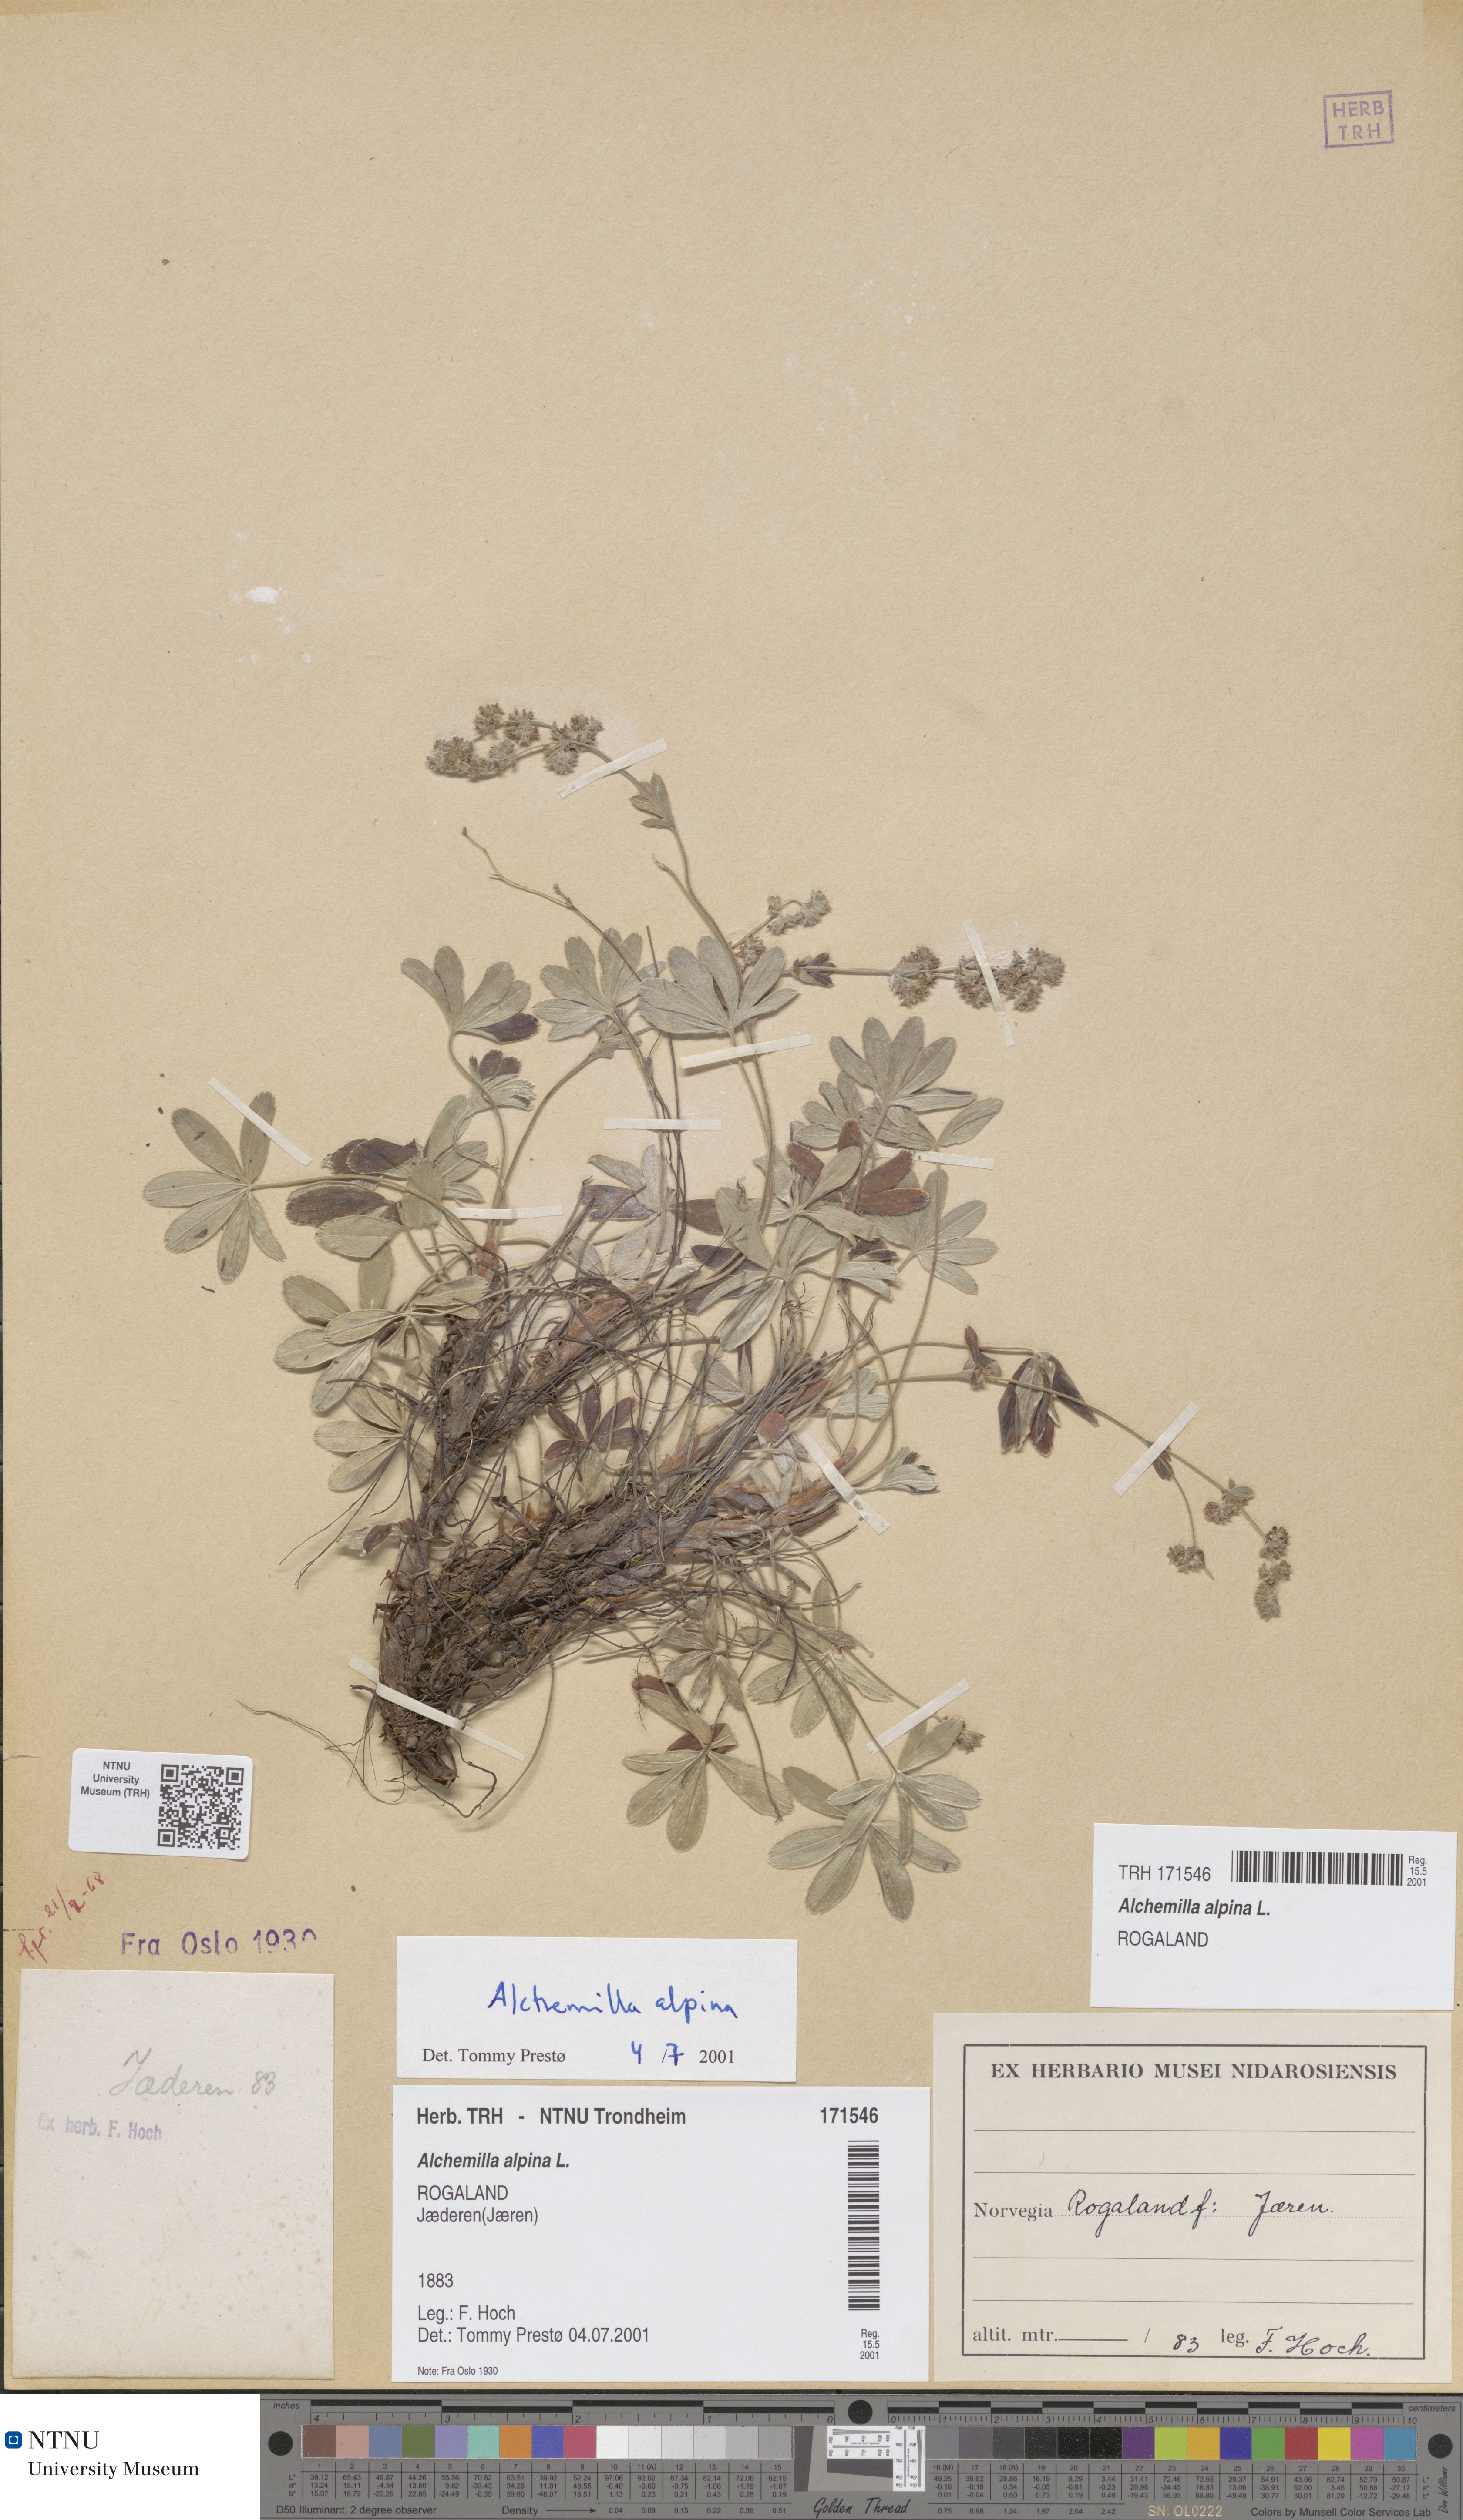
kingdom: Plantae
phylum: Tracheophyta
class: Magnoliopsida
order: Rosales
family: Rosaceae
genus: Alchemilla
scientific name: Alchemilla alpina
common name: Alpine lady's-mantle
